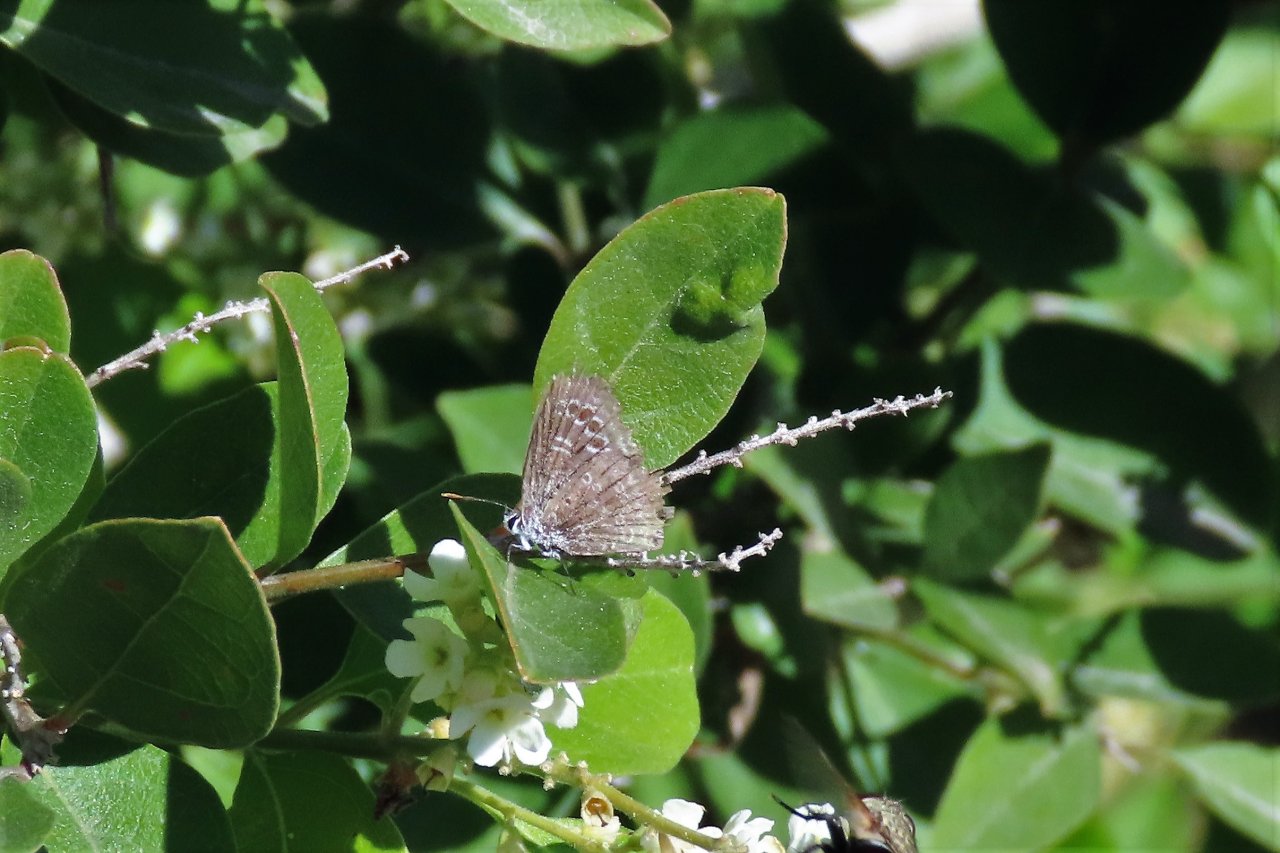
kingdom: Animalia
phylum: Arthropoda
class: Insecta
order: Lepidoptera
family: Lycaenidae
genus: Echinargus
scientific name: Echinargus isola
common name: Reakirt's Blue
